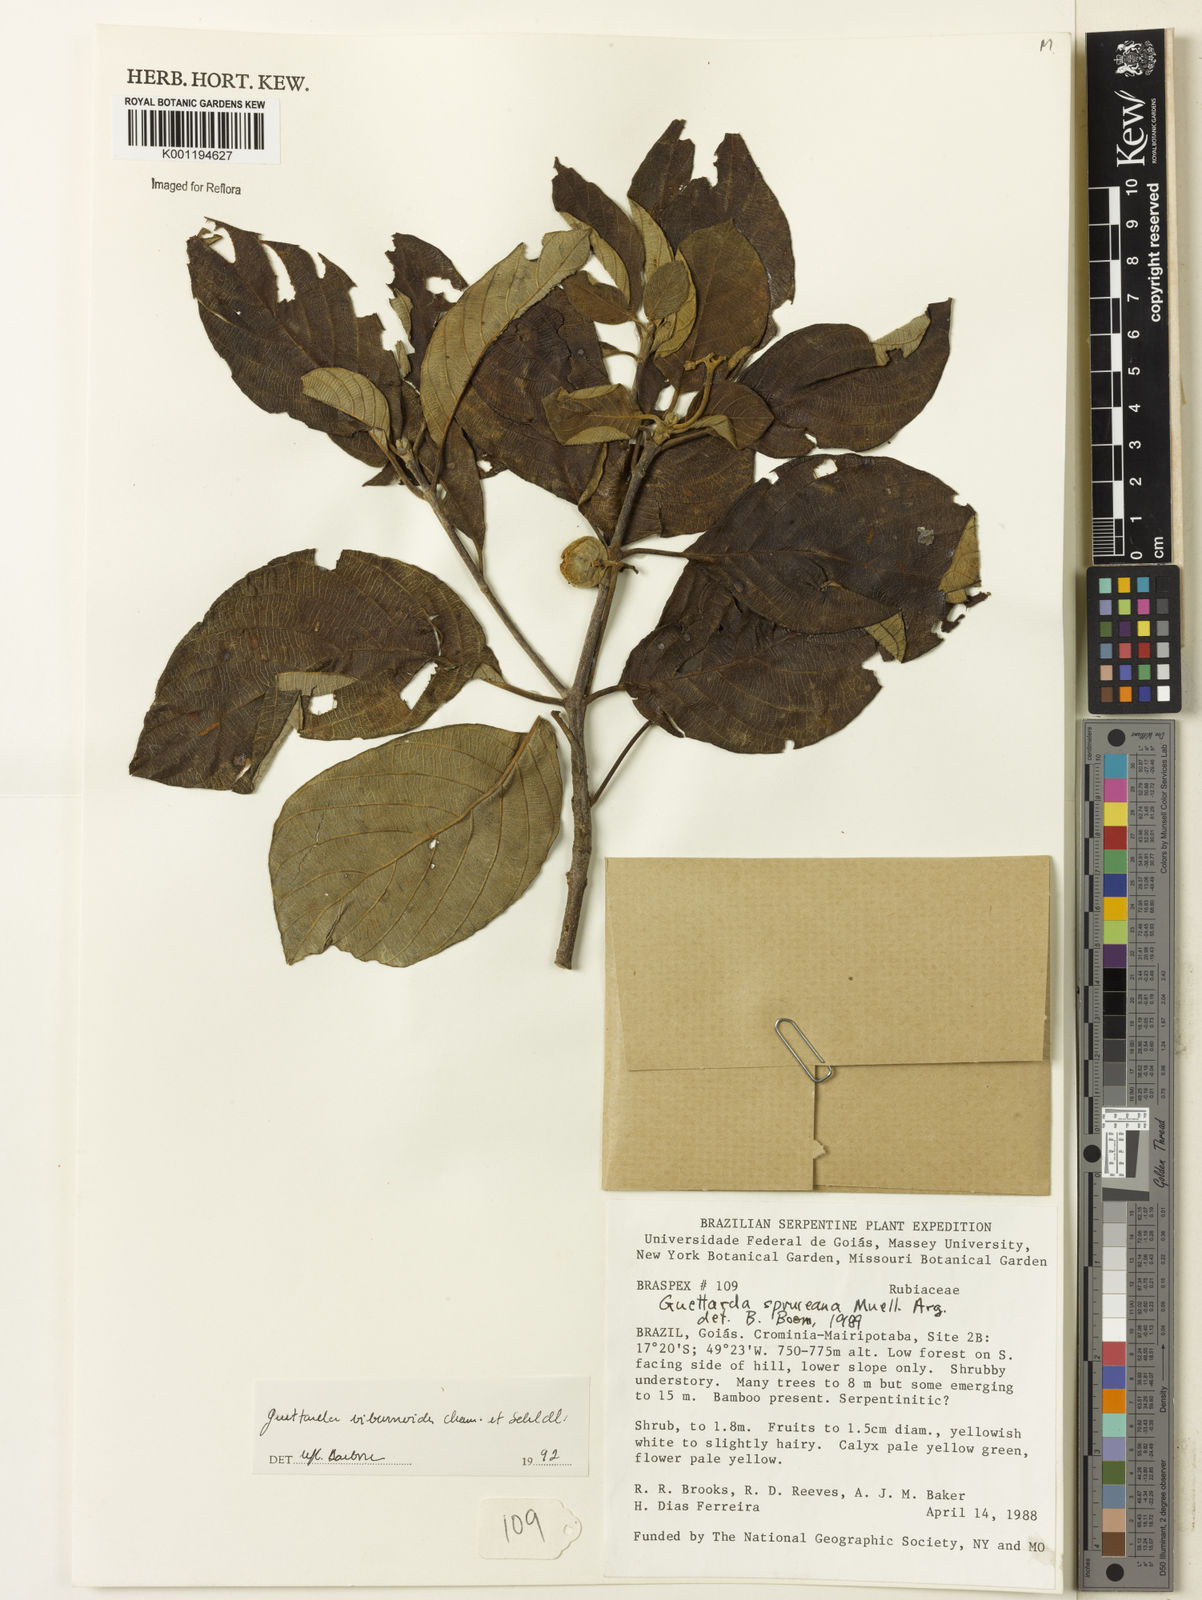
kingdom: Plantae
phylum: Tracheophyta
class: Magnoliopsida
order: Gentianales
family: Rubiaceae
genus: Guettarda
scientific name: Guettarda viburnoides
